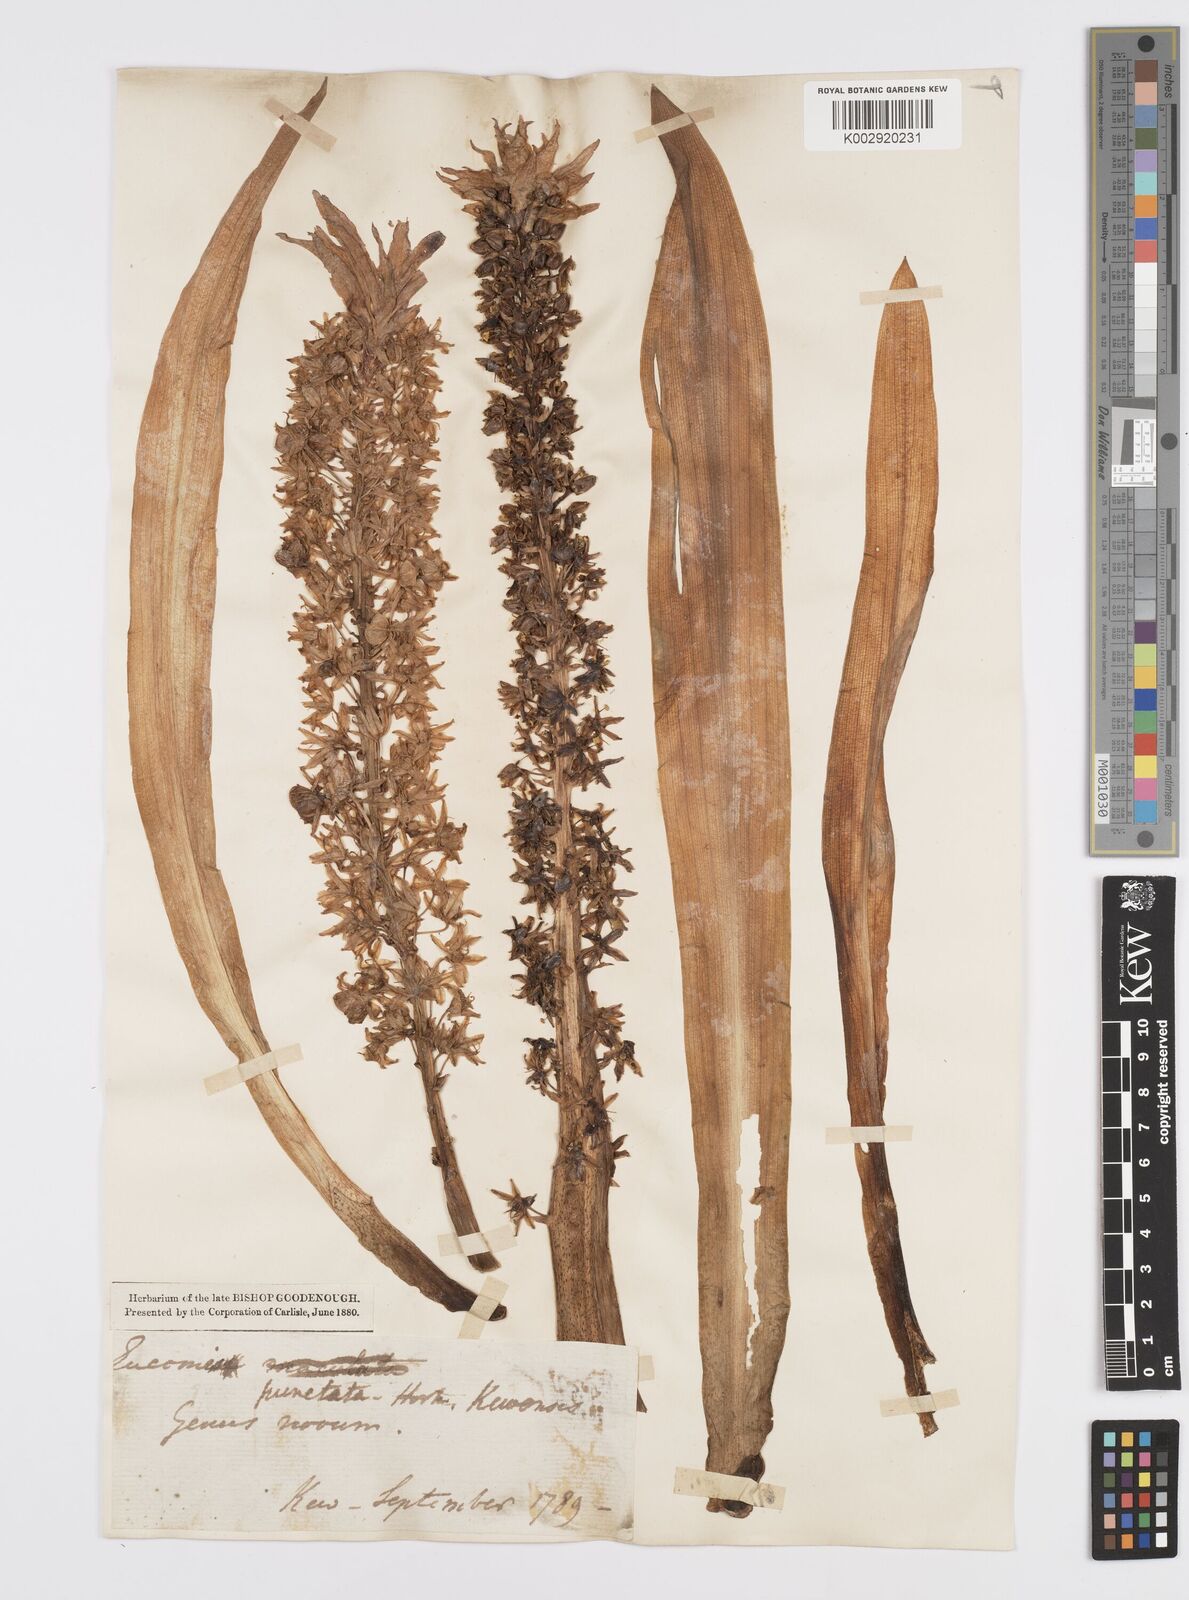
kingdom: Plantae
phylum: Tracheophyta
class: Liliopsida
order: Asparagales
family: Asparagaceae
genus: Eucomis
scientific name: Eucomis comosa
